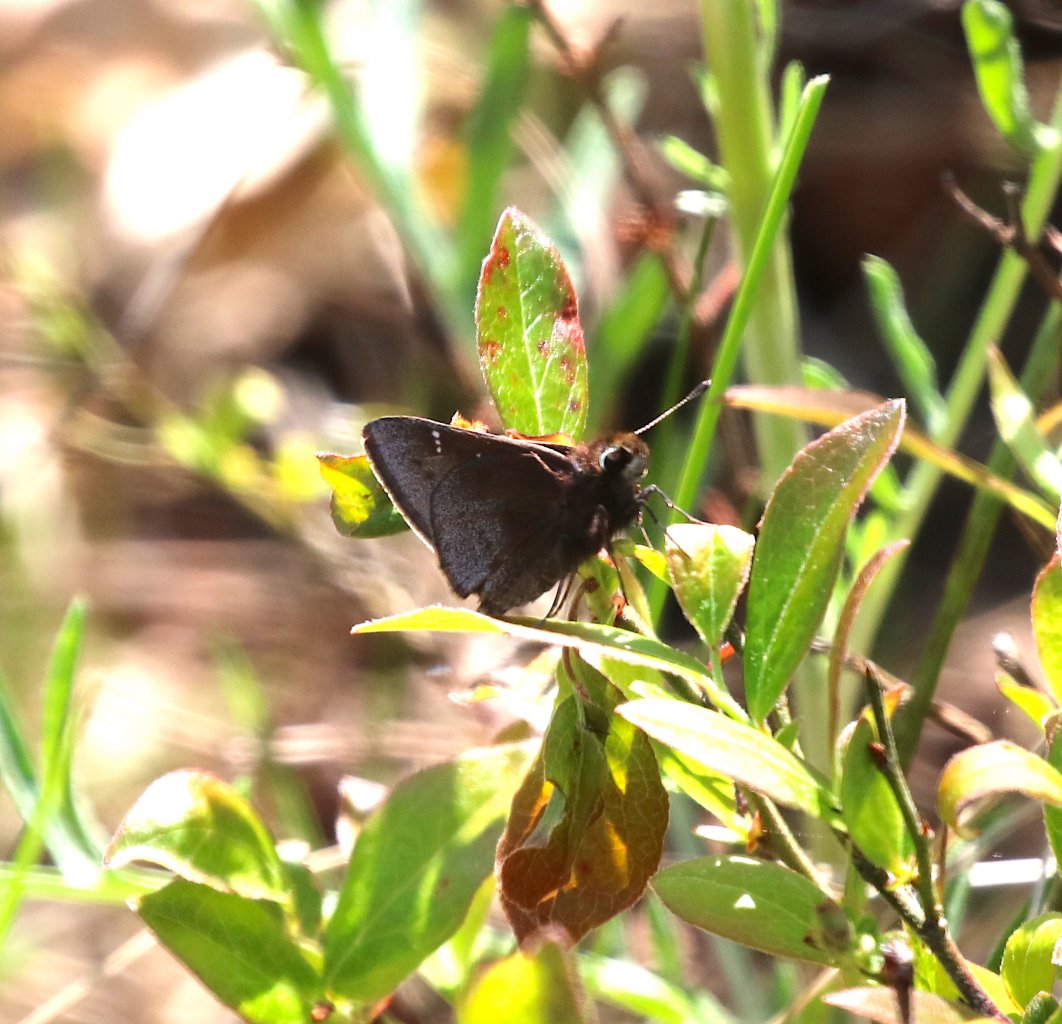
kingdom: Animalia
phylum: Arthropoda
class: Insecta
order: Lepidoptera
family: Hesperiidae
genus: Atrytonopsis
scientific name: Atrytonopsis hianna
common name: Dusted Skipper
